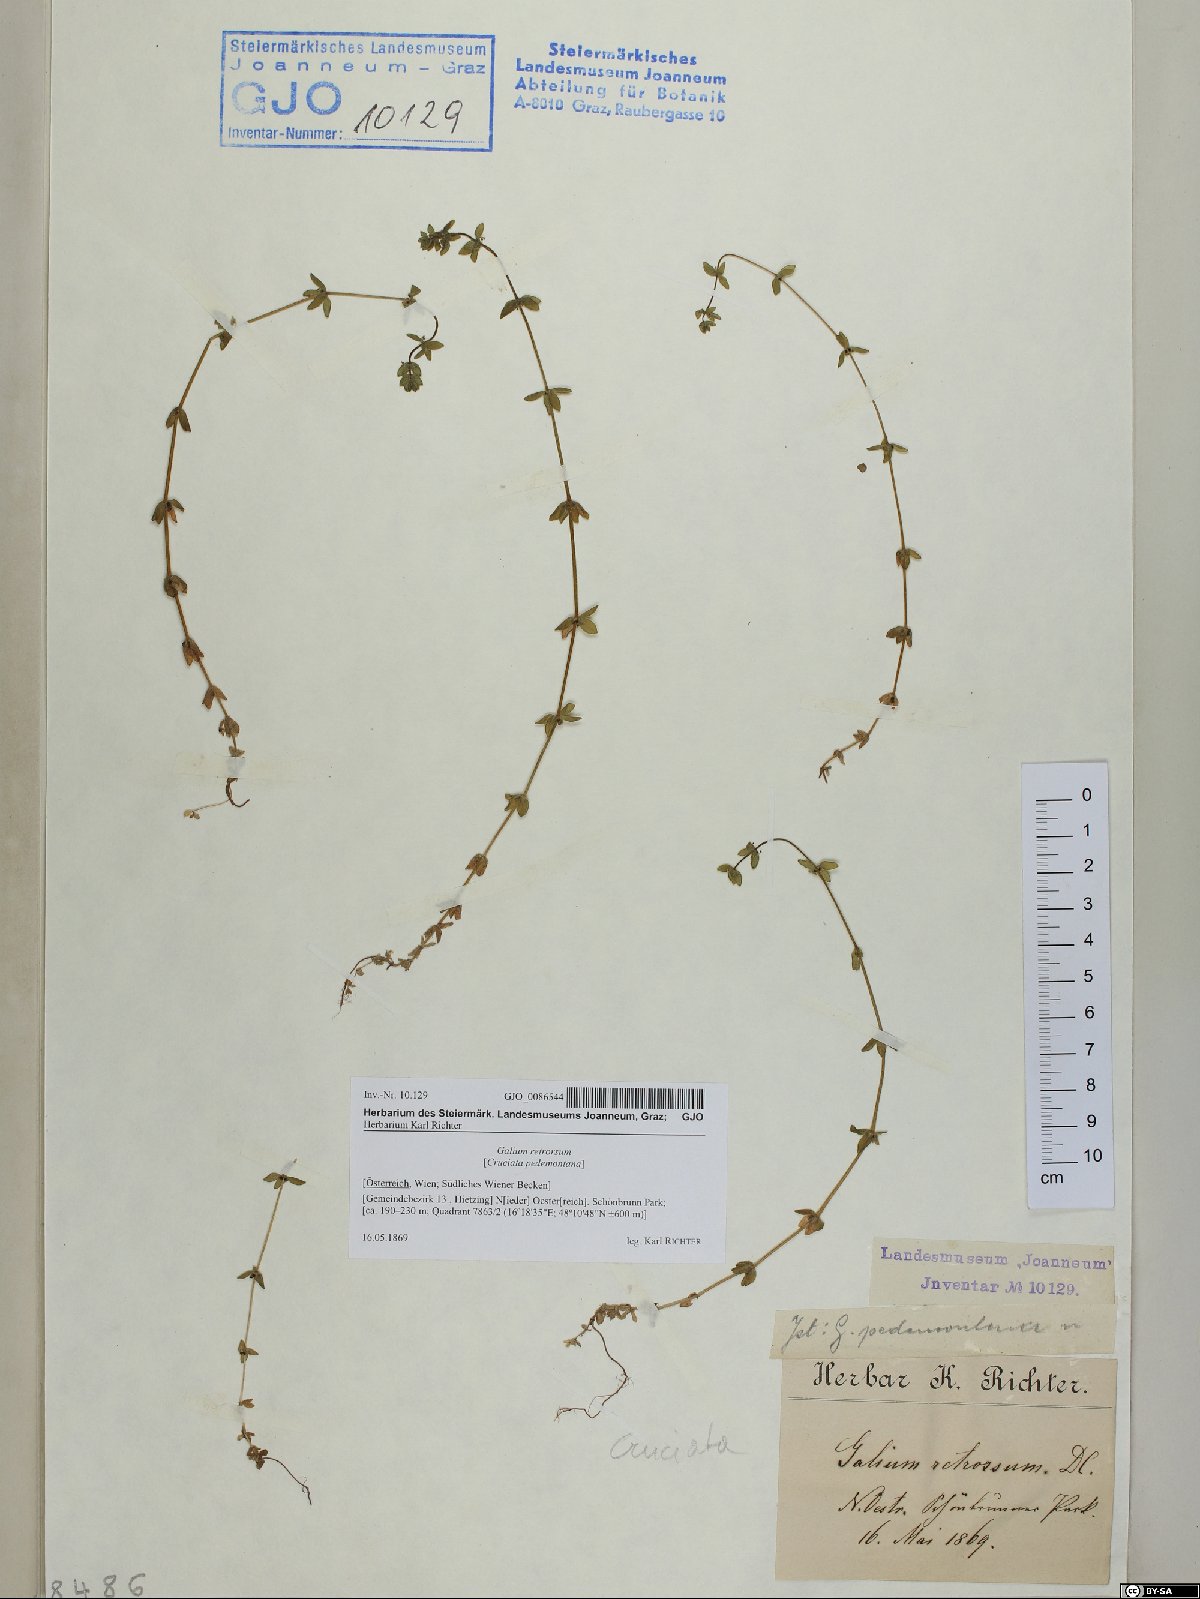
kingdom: Plantae
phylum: Tracheophyta
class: Magnoliopsida
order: Gentianales
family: Rubiaceae
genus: Cruciata
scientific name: Cruciata pedemontana
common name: Piedmont bedstraw
